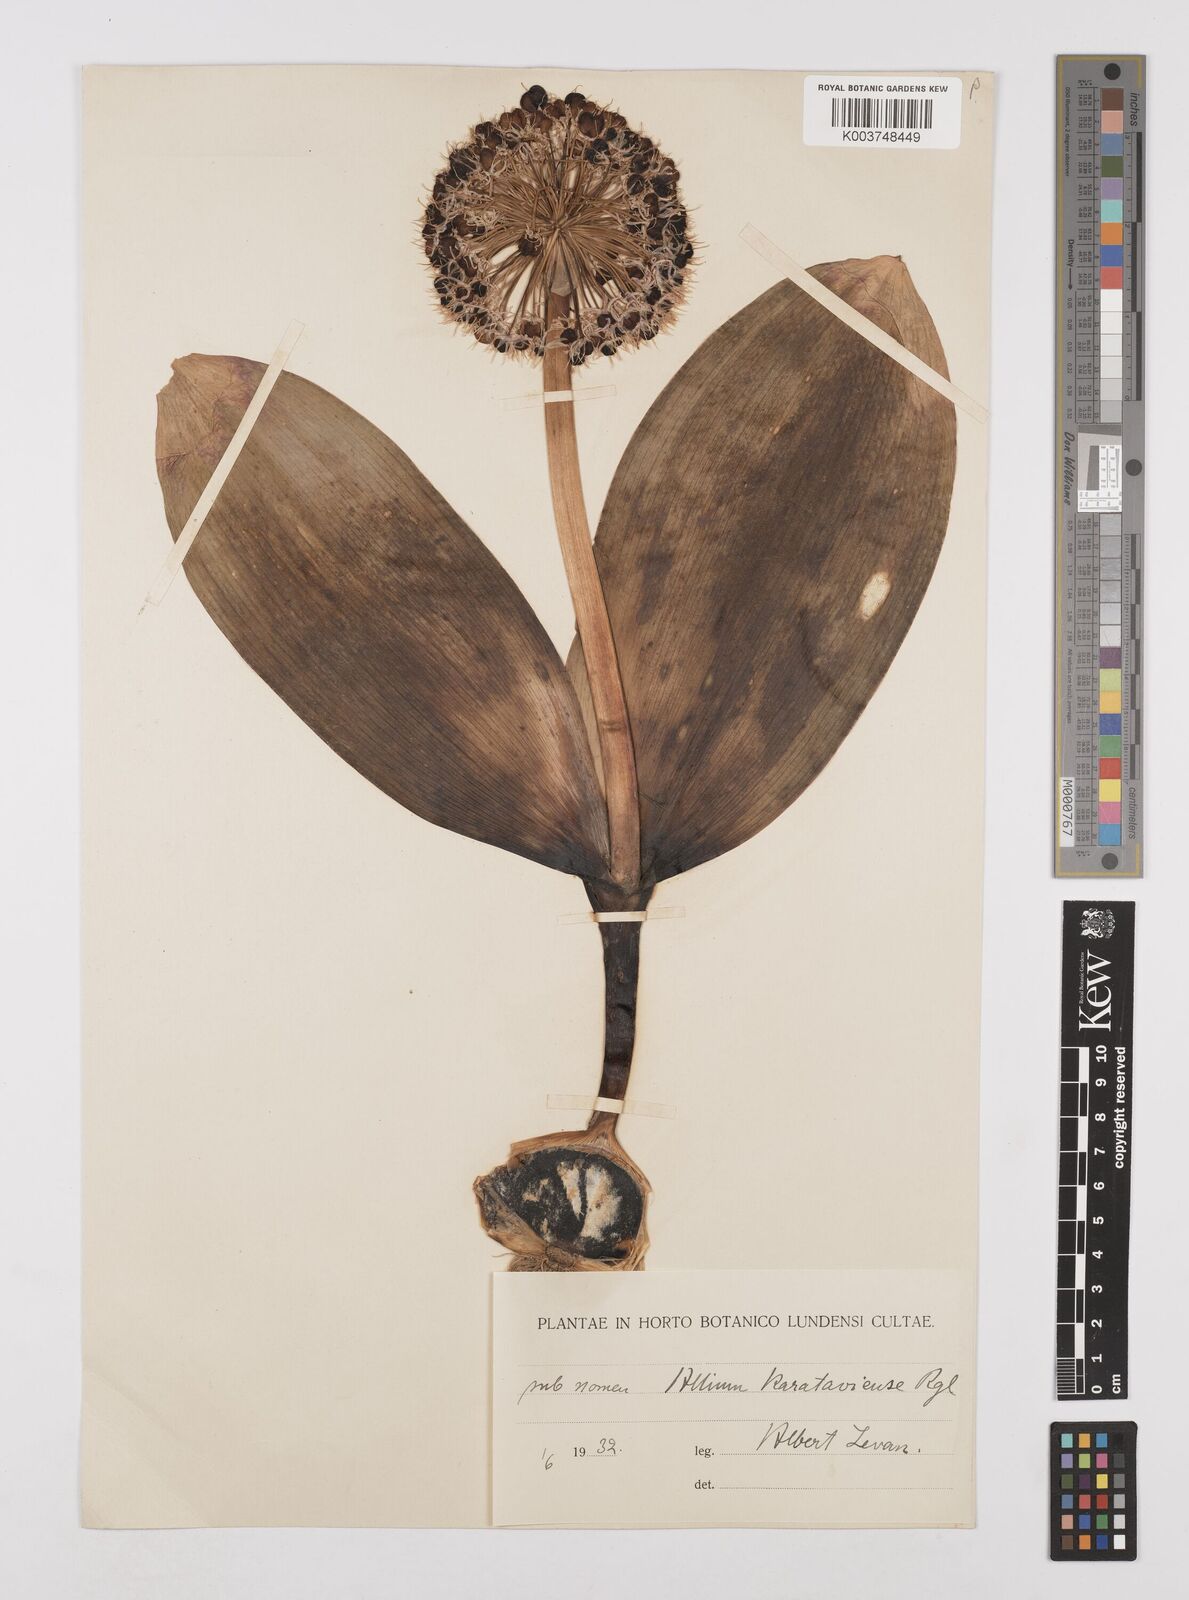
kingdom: Plantae
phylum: Tracheophyta
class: Liliopsida
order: Asparagales
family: Amaryllidaceae
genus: Allium
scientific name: Allium karataviense
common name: Turkestan onion
